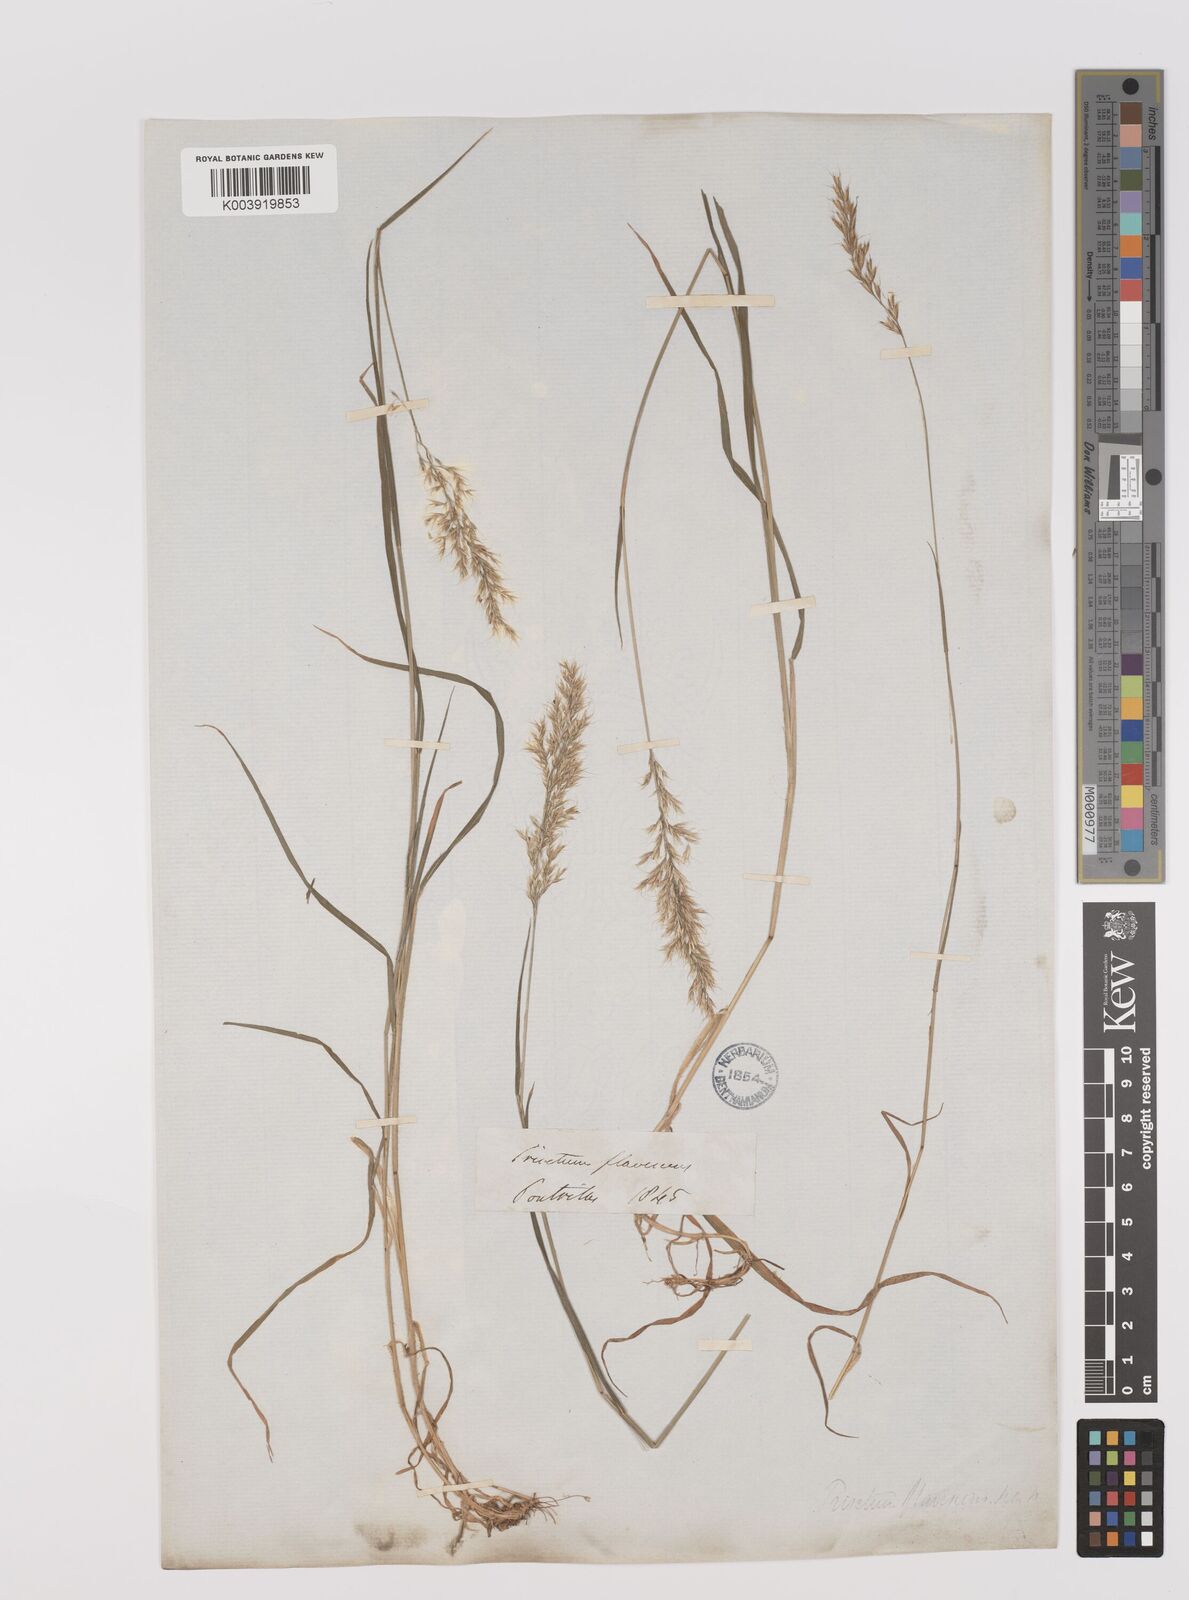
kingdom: Plantae
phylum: Tracheophyta
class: Liliopsida
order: Poales
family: Poaceae
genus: Trisetum
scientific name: Trisetum flavescens
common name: Yellow oat-grass
